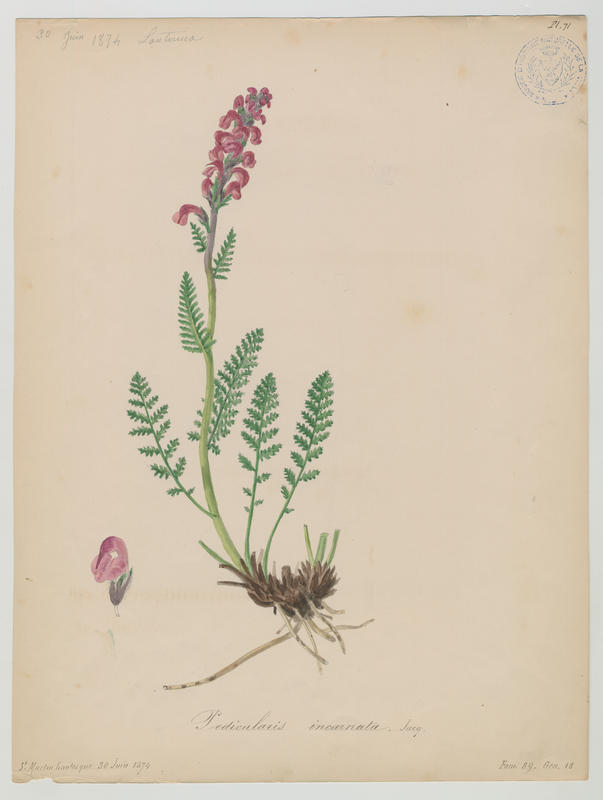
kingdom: Plantae
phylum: Tracheophyta
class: Magnoliopsida
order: Lamiales
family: Orobanchaceae
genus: Pedicularis
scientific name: Pedicularis rostratospicata
